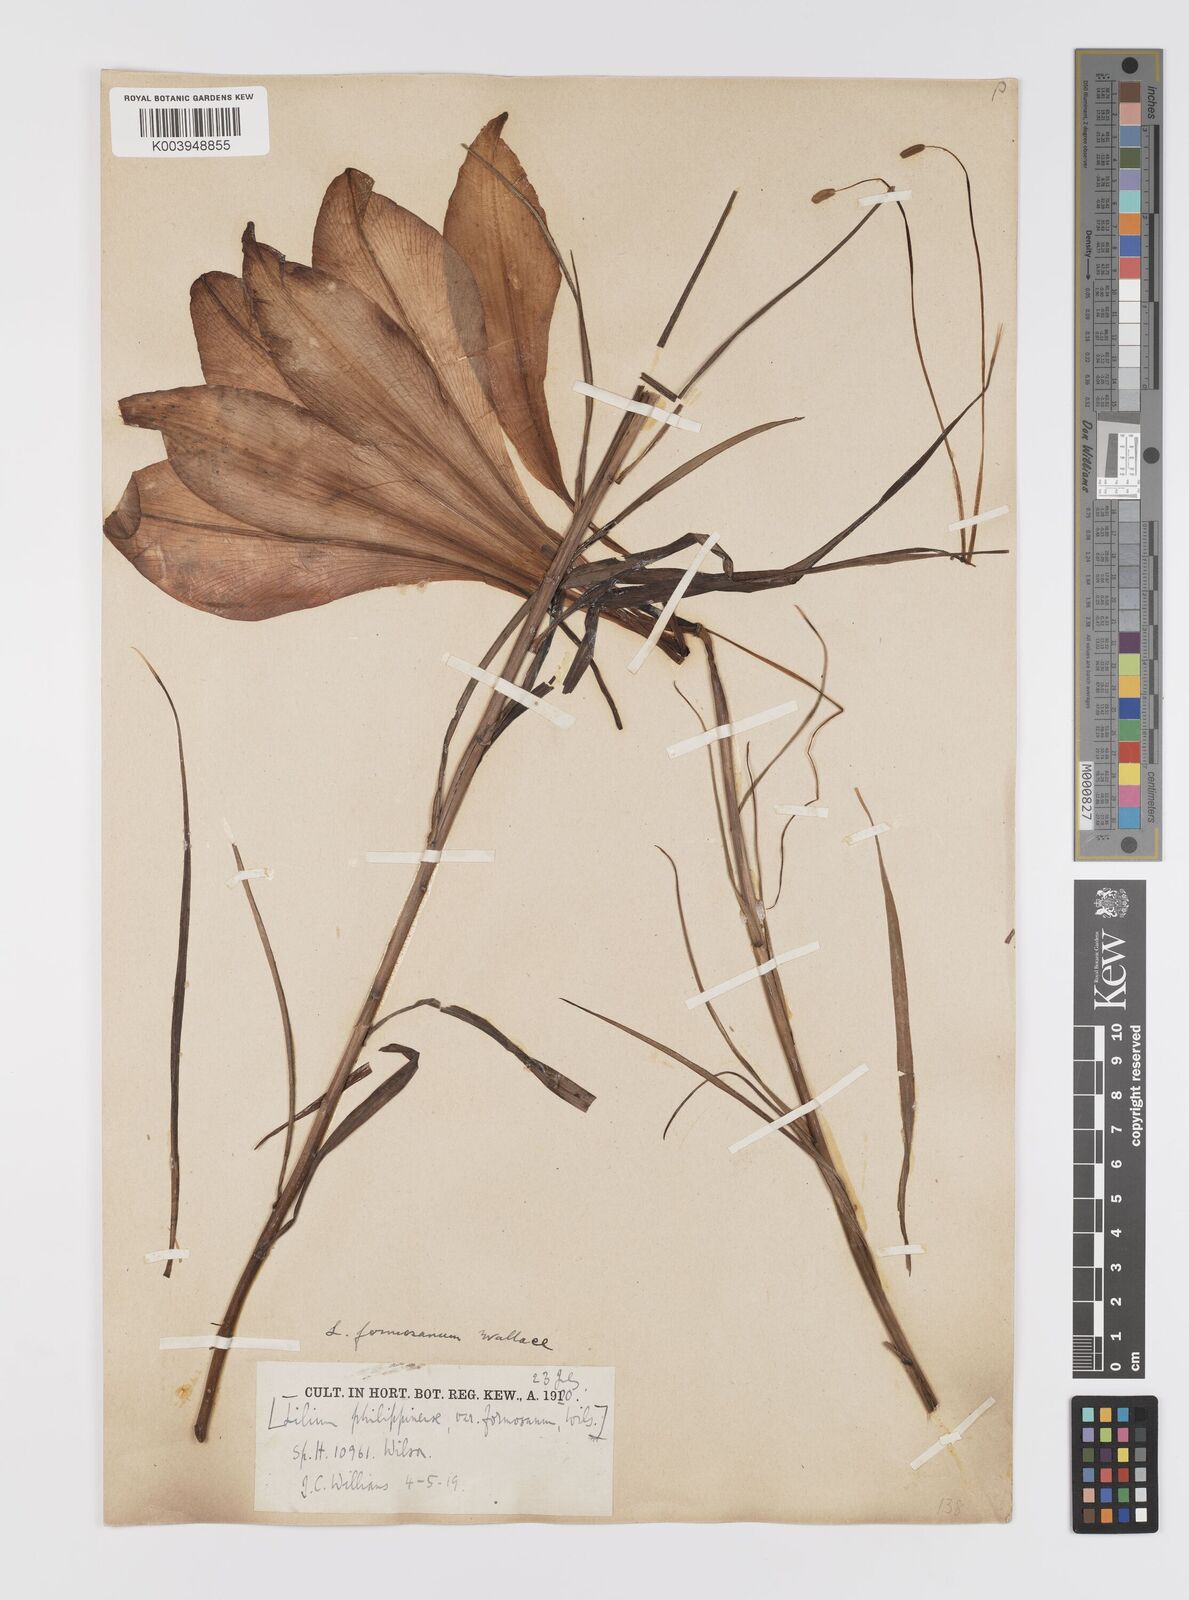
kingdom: Plantae
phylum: Tracheophyta
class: Liliopsida
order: Liliales
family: Liliaceae
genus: Lilium
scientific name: Lilium formosanum
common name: Formosa lily
